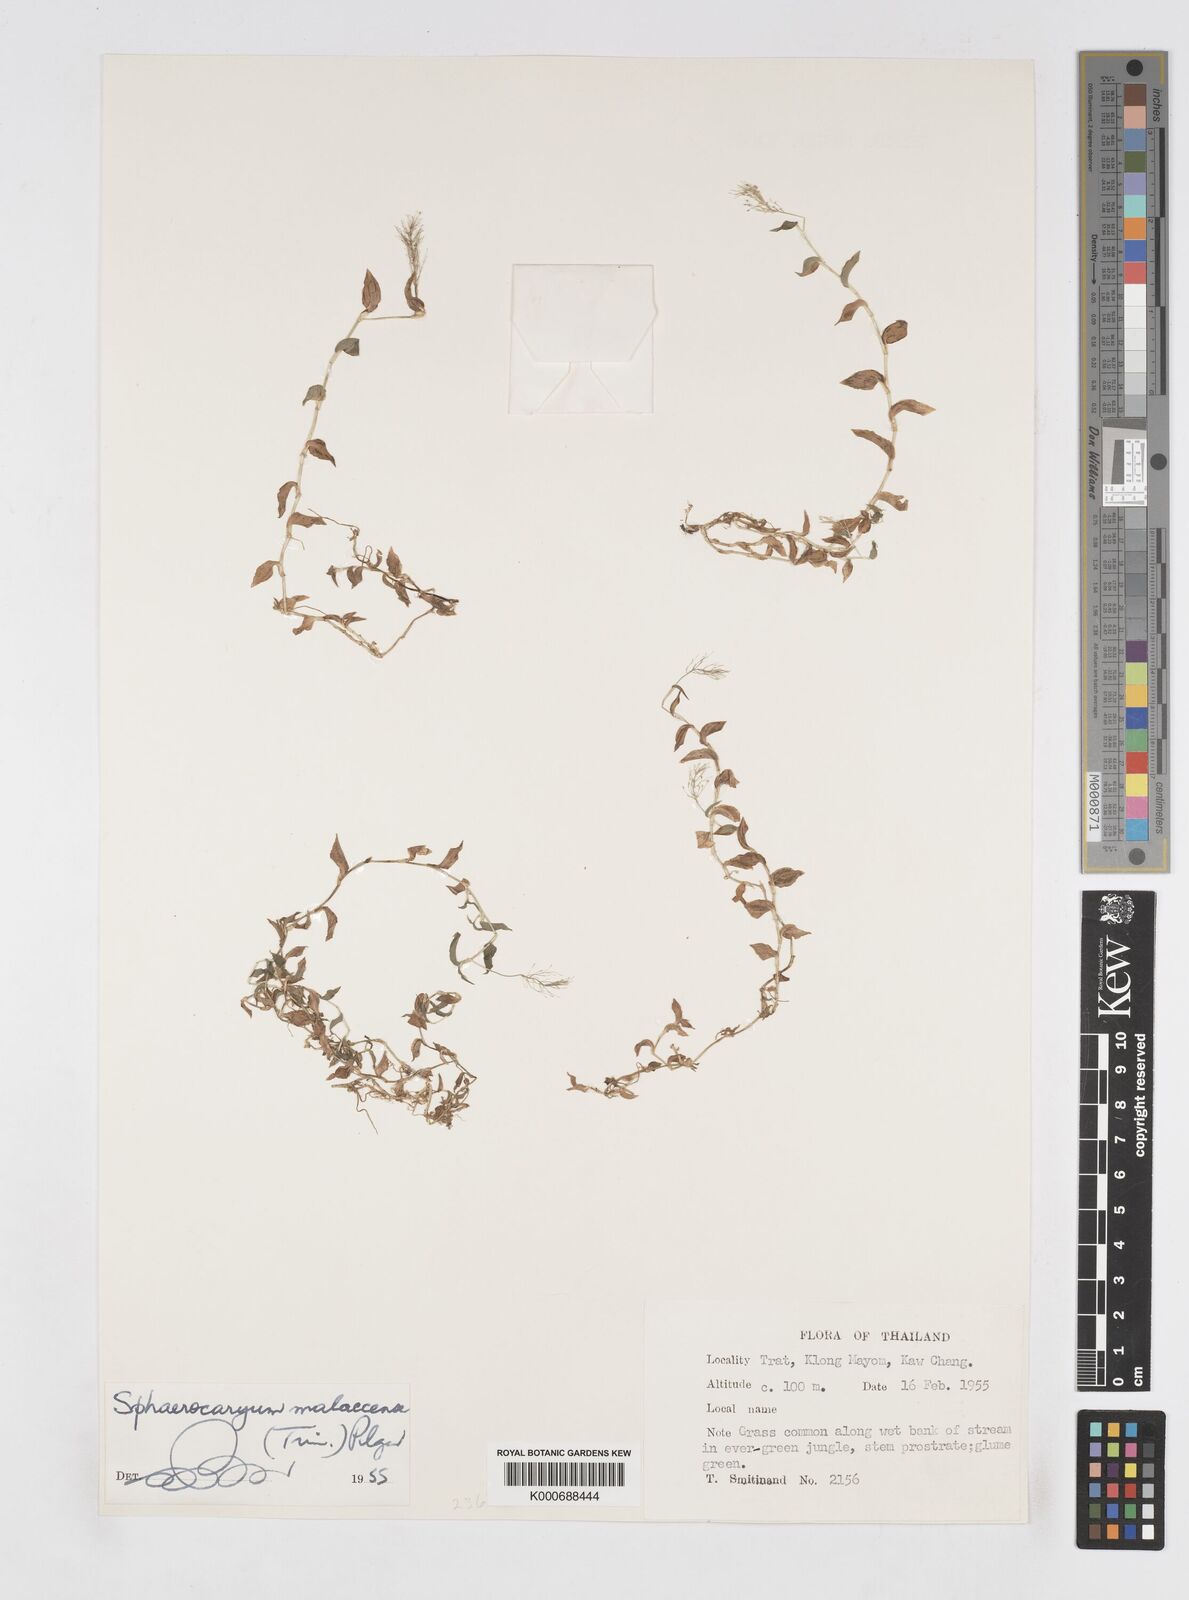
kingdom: Plantae
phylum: Tracheophyta
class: Liliopsida
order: Poales
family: Poaceae
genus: Sphaerocaryum
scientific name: Sphaerocaryum malaccense
